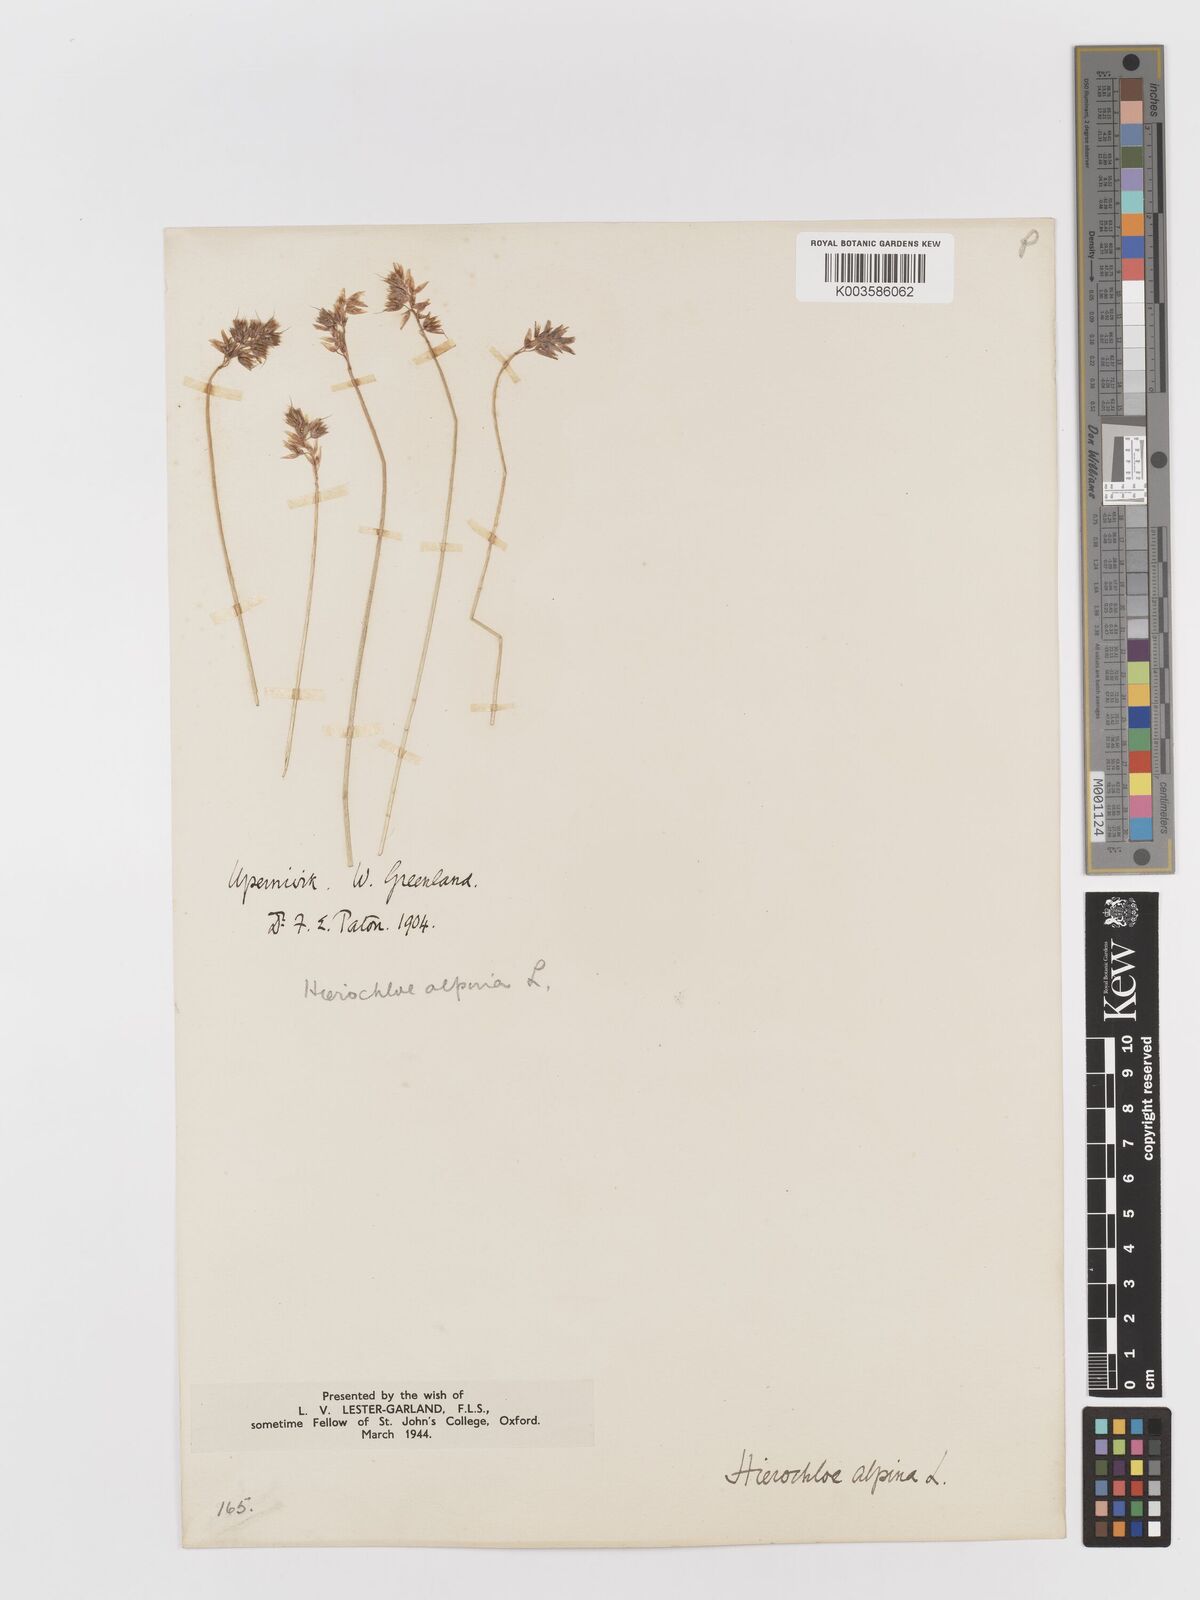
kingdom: Plantae
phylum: Tracheophyta
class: Liliopsida
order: Poales
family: Poaceae
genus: Anthoxanthum
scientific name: Anthoxanthum monticola
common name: Alpine sweetgrass
